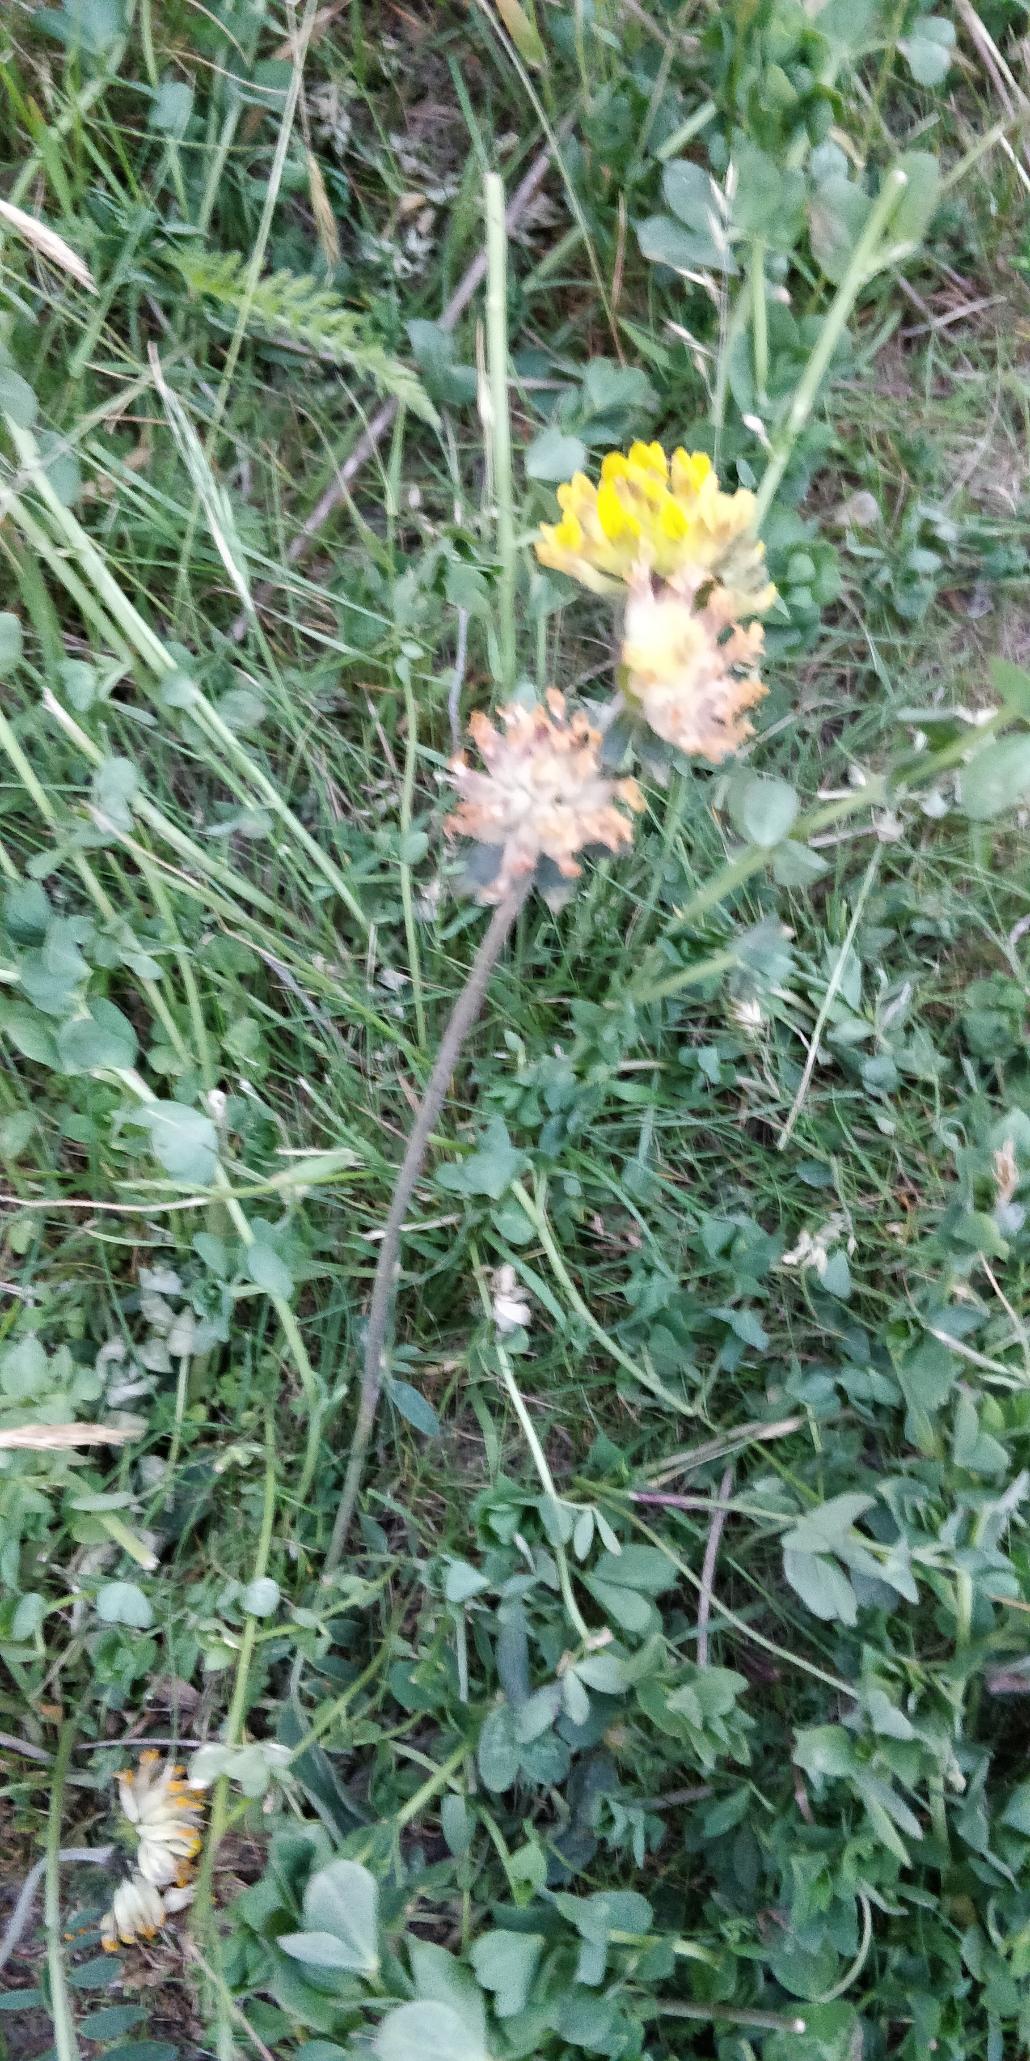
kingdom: Plantae
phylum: Tracheophyta
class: Magnoliopsida
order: Fabales
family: Fabaceae
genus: Anthyllis
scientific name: Anthyllis vulneraria
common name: Rundbælg
